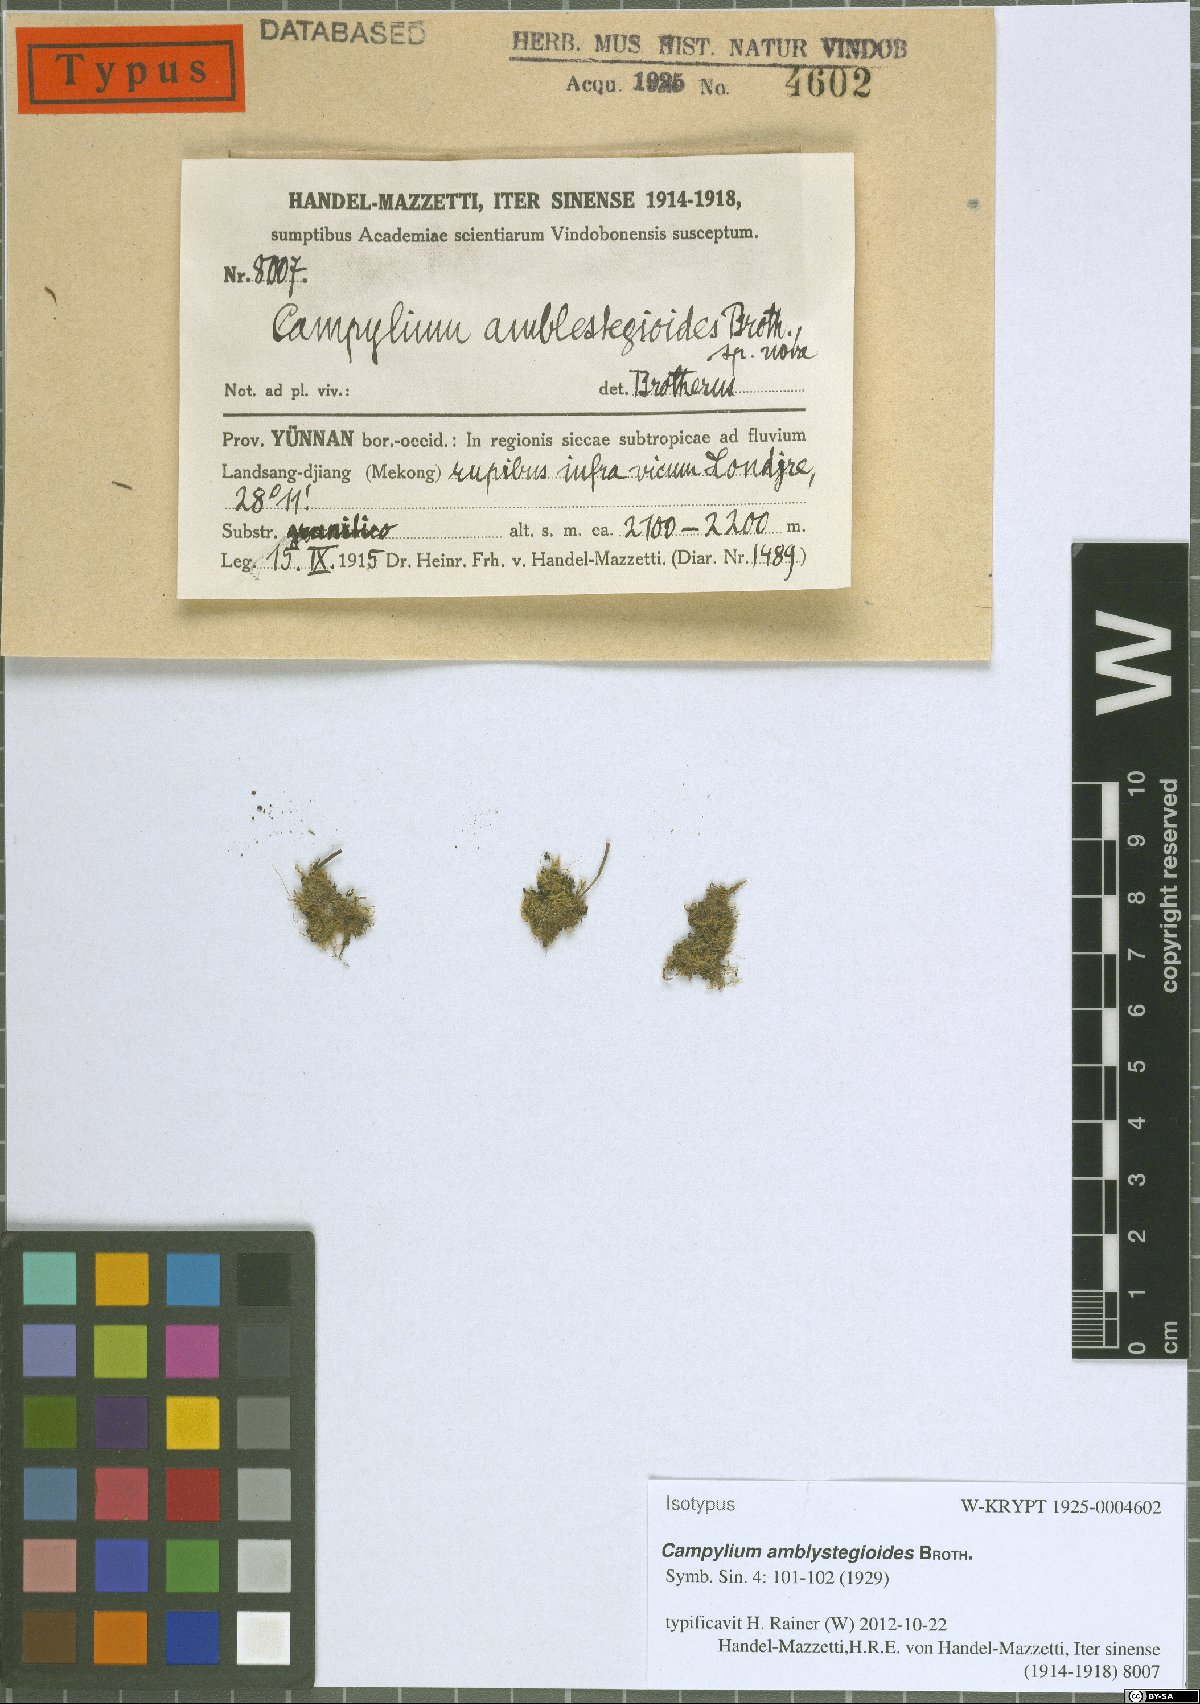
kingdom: Plantae
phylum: Bryophyta
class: Bryopsida
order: Hypnales
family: Amblystegiaceae
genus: Campylium
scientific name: Campylium amblystegioides
